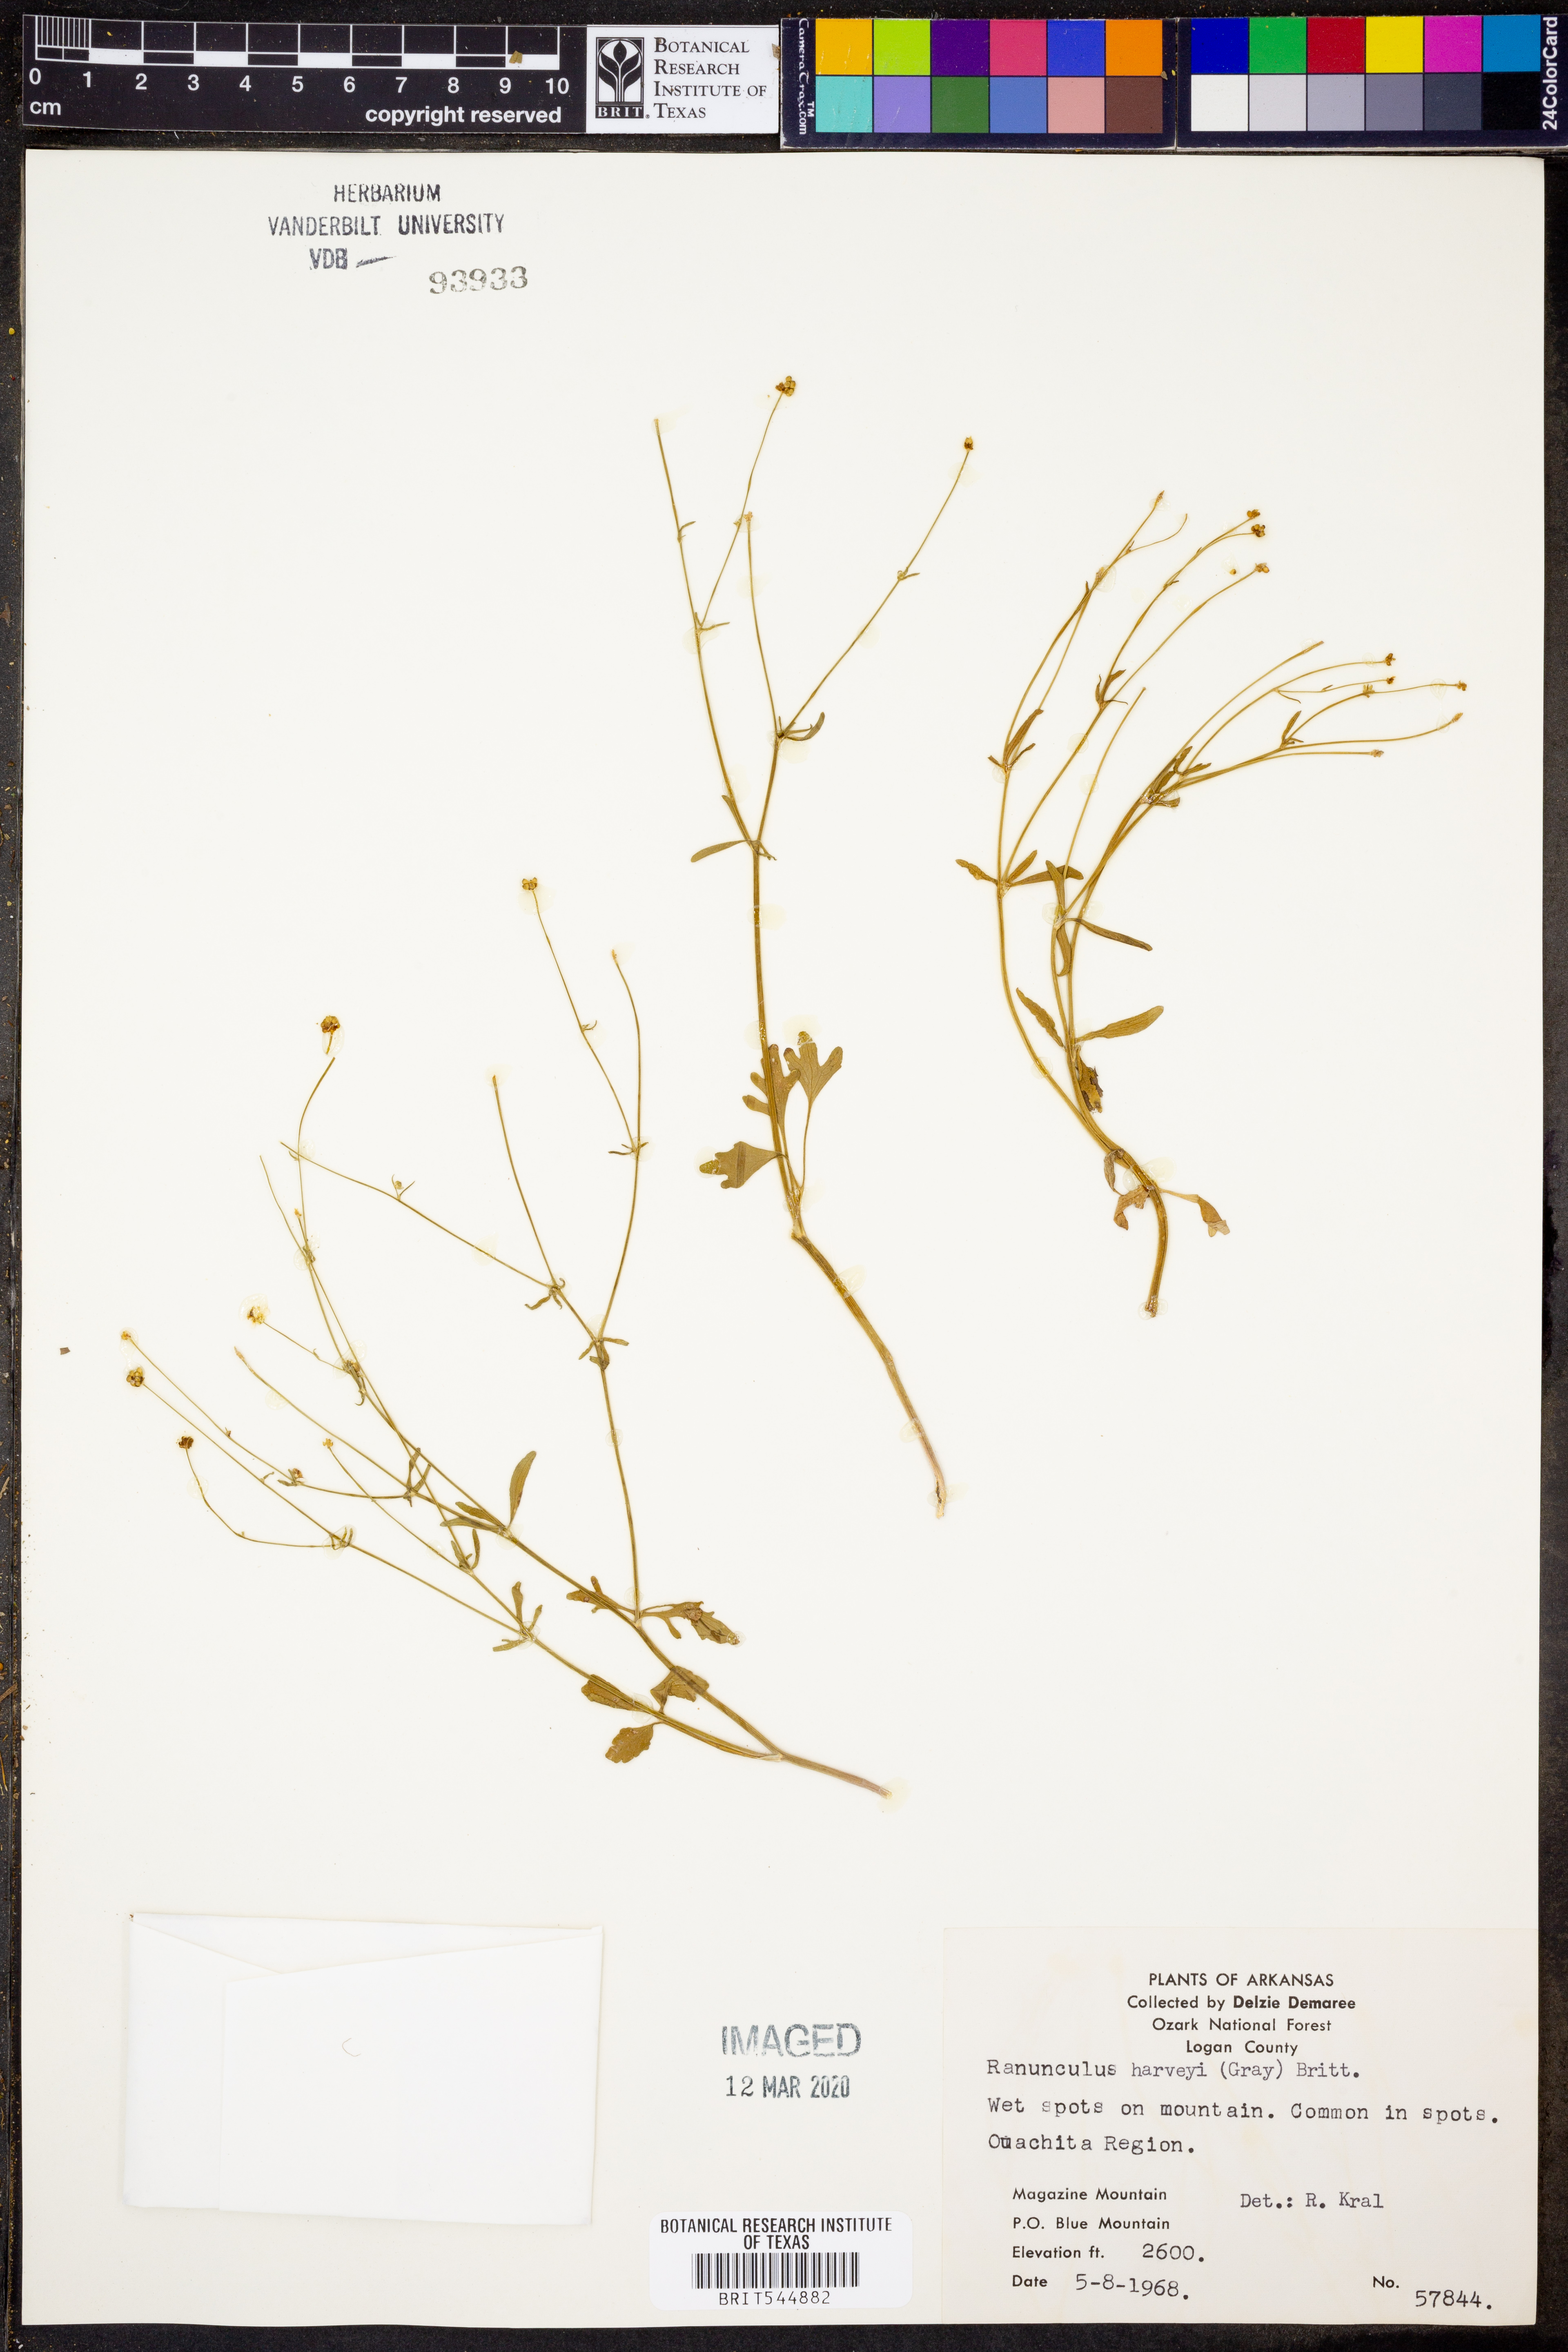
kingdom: Plantae
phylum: Tracheophyta
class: Magnoliopsida
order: Ranunculales
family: Ranunculaceae
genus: Ranunculus
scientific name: Ranunculus harveyi
